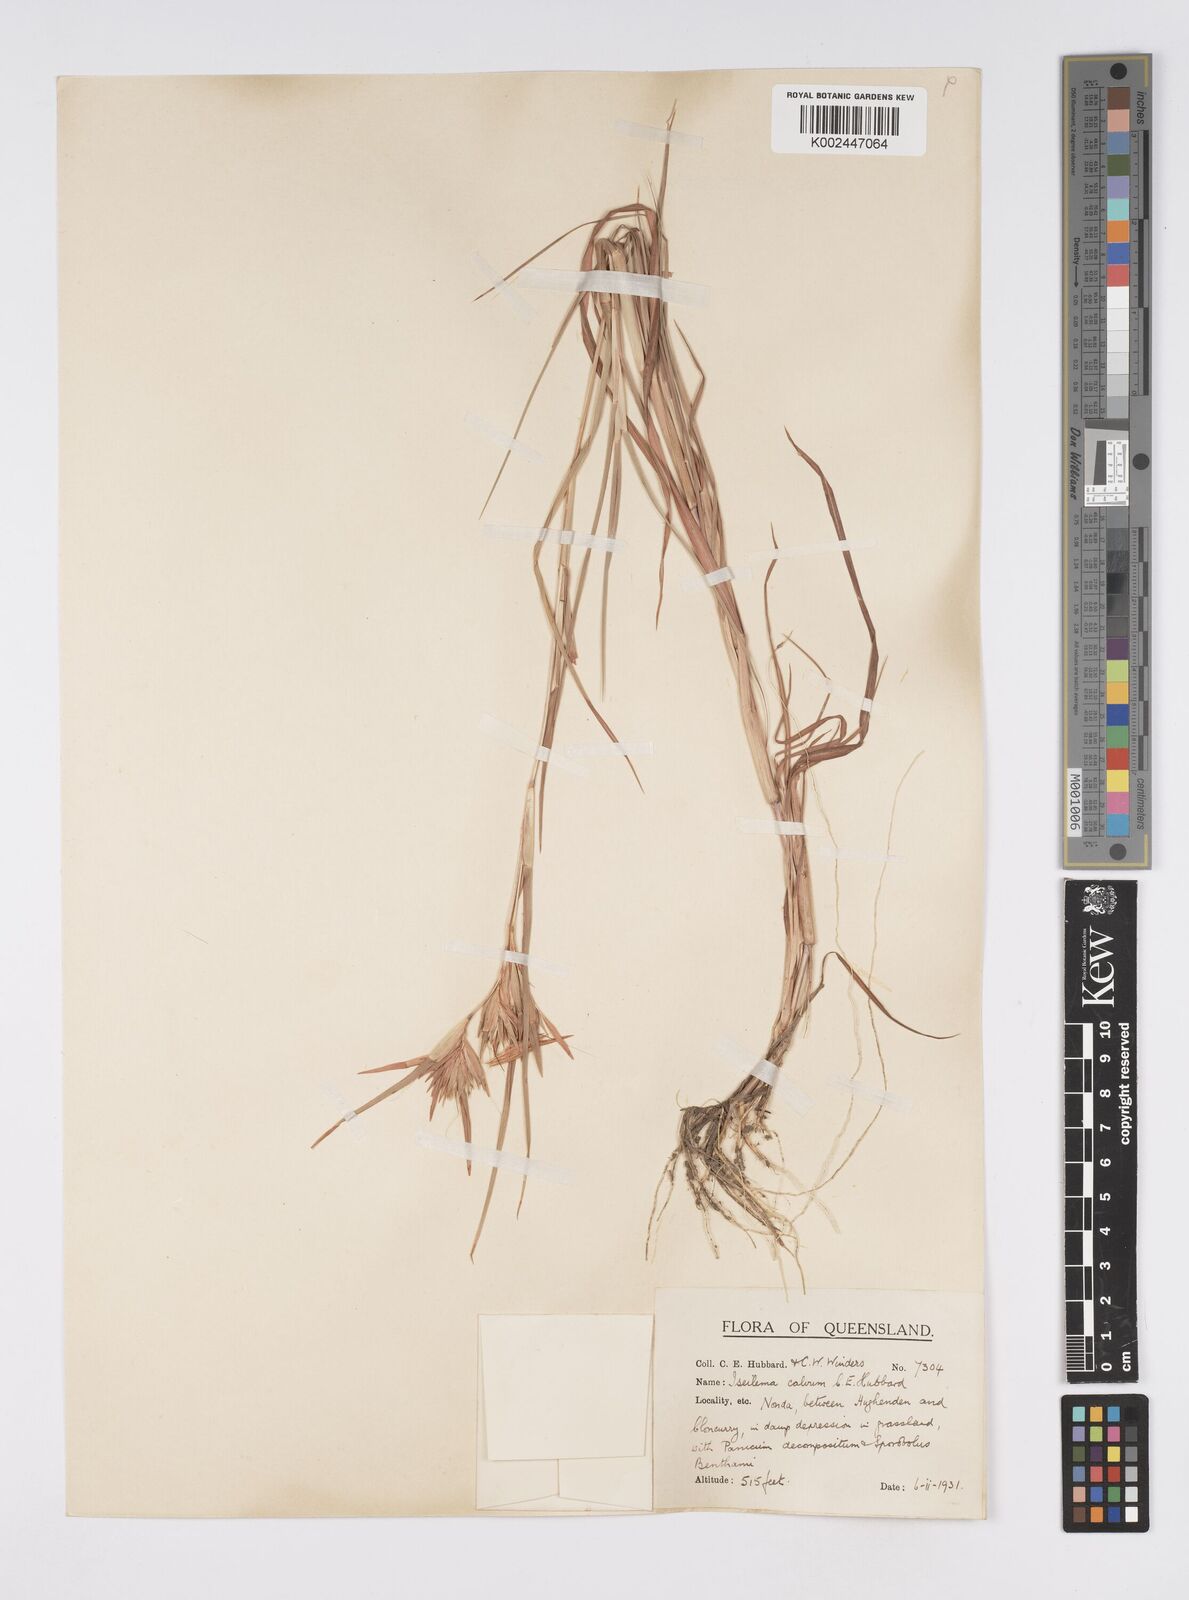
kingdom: Plantae
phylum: Tracheophyta
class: Liliopsida
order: Poales
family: Poaceae
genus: Iseilema
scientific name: Iseilema calvum
